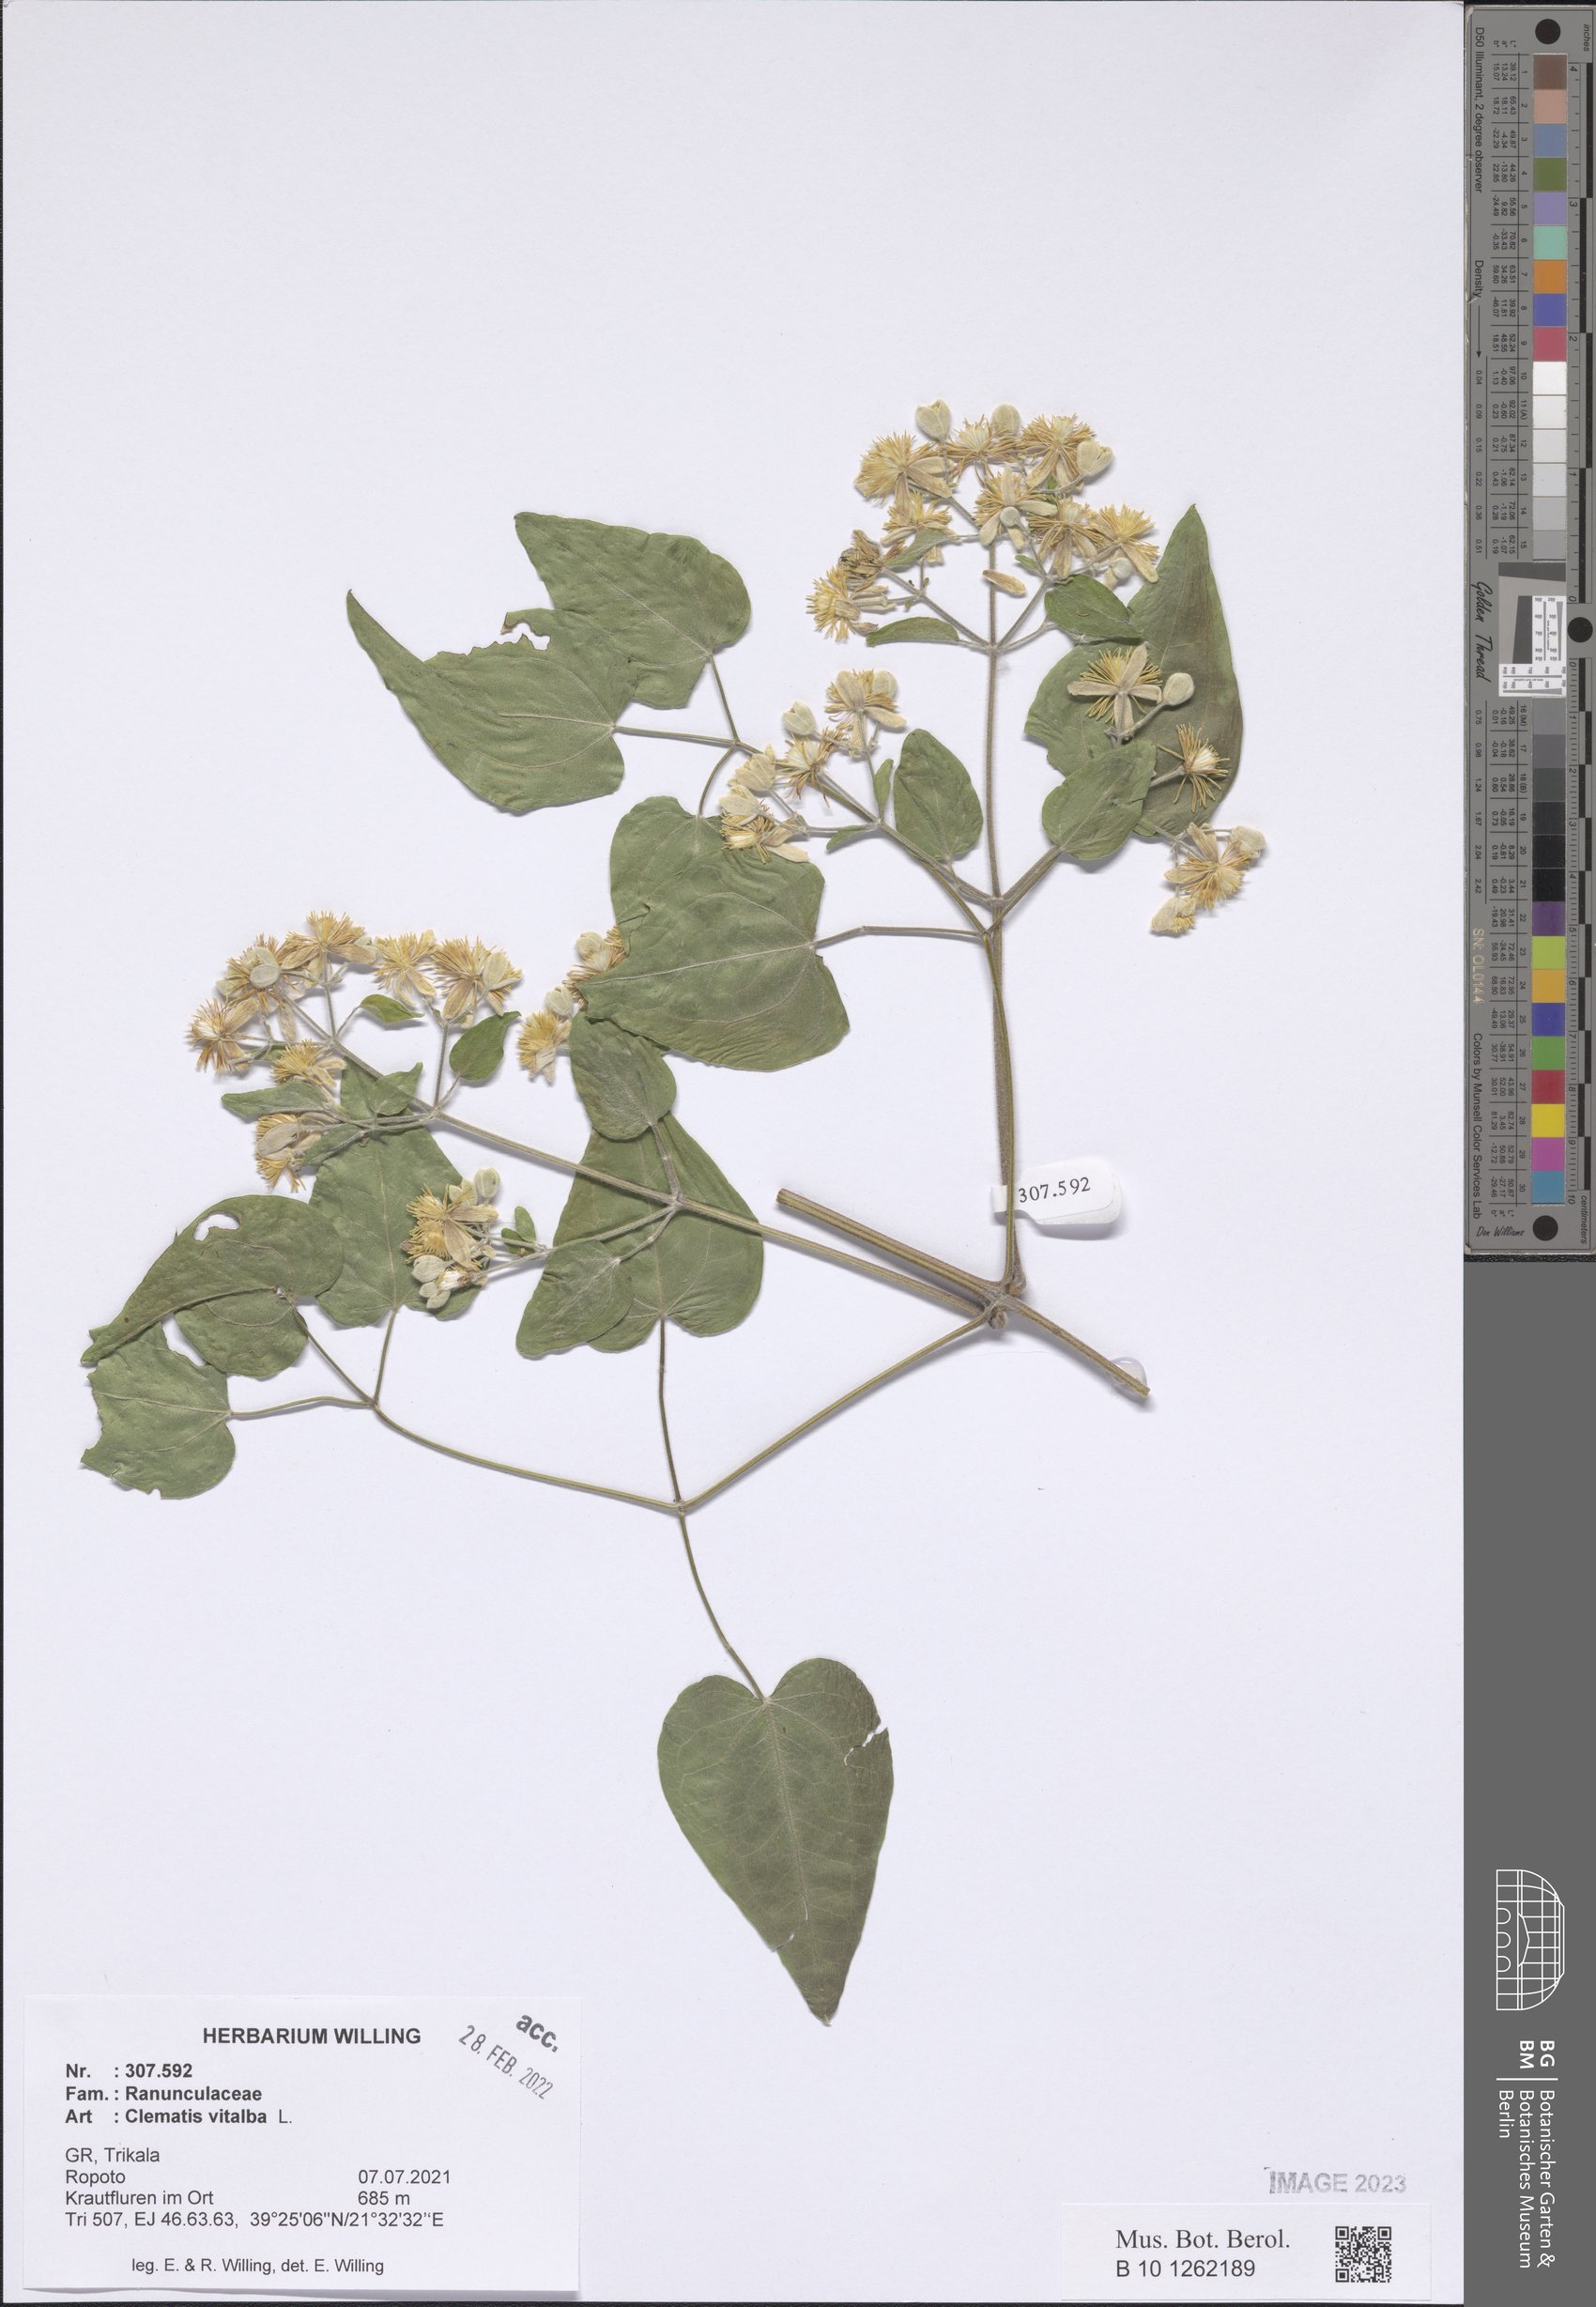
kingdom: Plantae
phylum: Tracheophyta
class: Magnoliopsida
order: Ranunculales
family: Ranunculaceae
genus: Clematis
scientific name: Clematis vitalba
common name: Evergreen clematis
